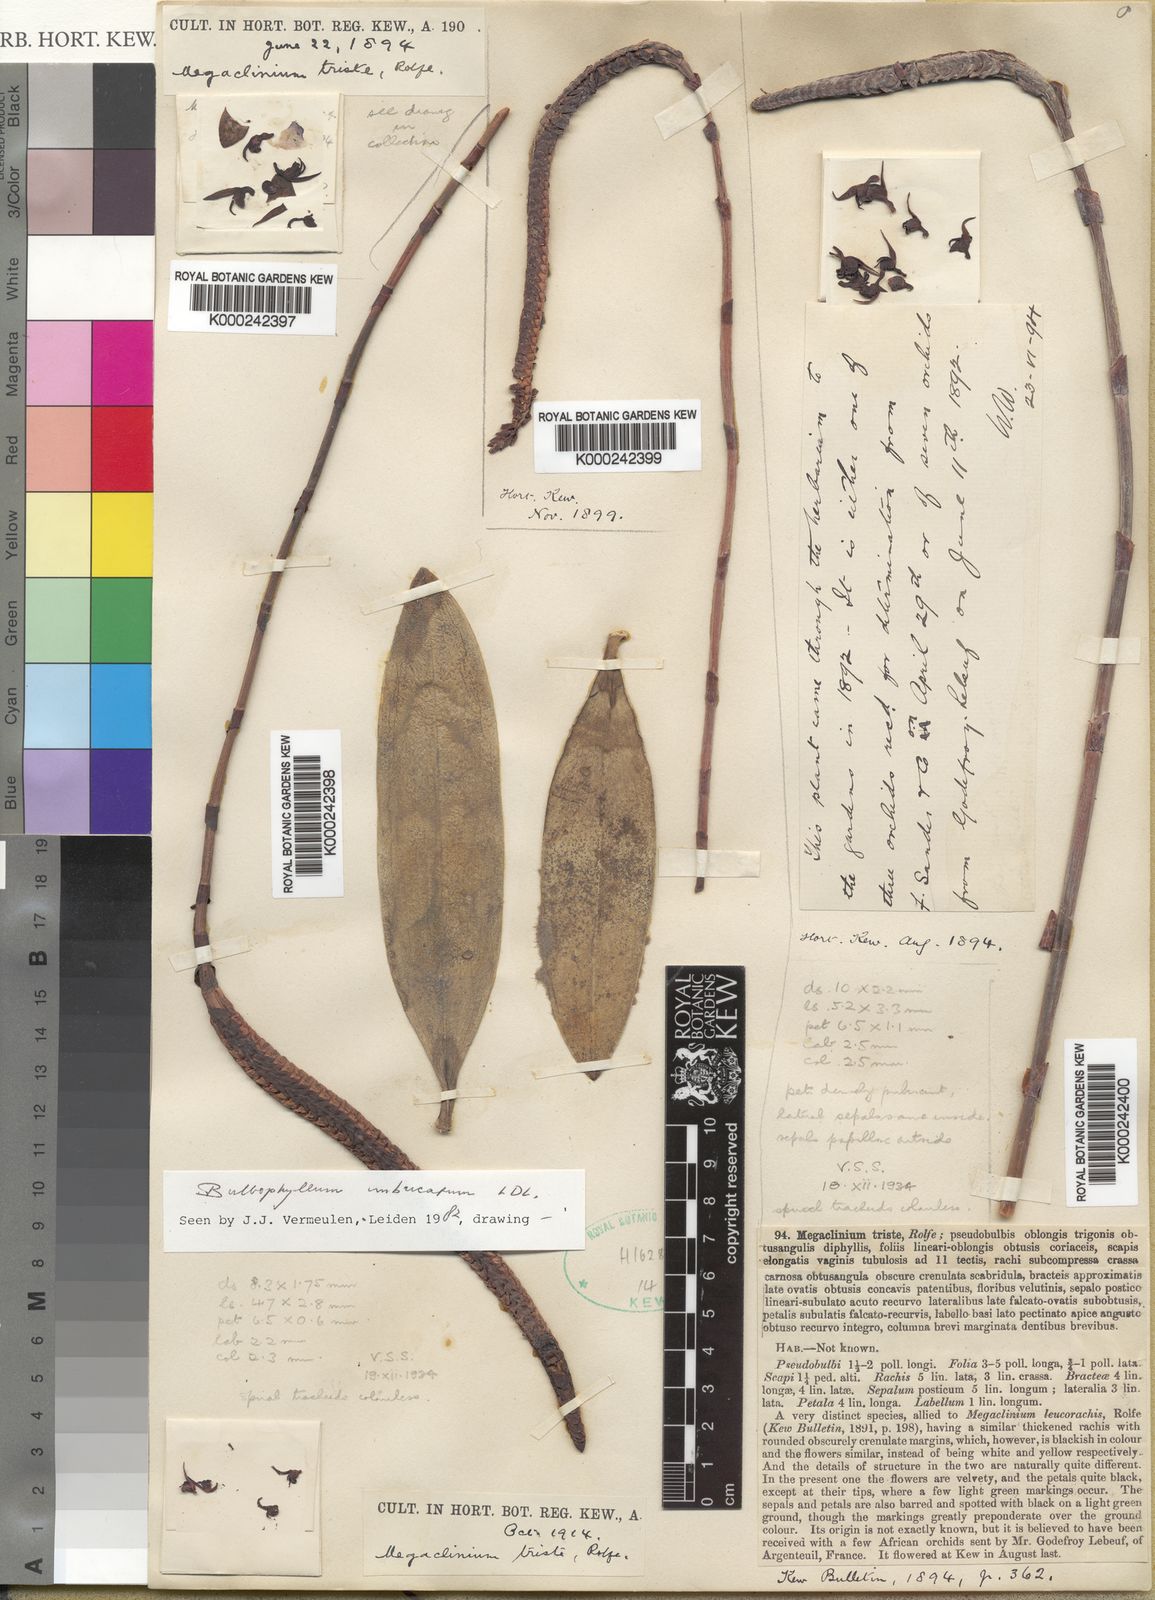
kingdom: Plantae
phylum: Tracheophyta
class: Liliopsida
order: Asparagales
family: Orchidaceae
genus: Bulbophyllum
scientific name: Bulbophyllum imbricatum
